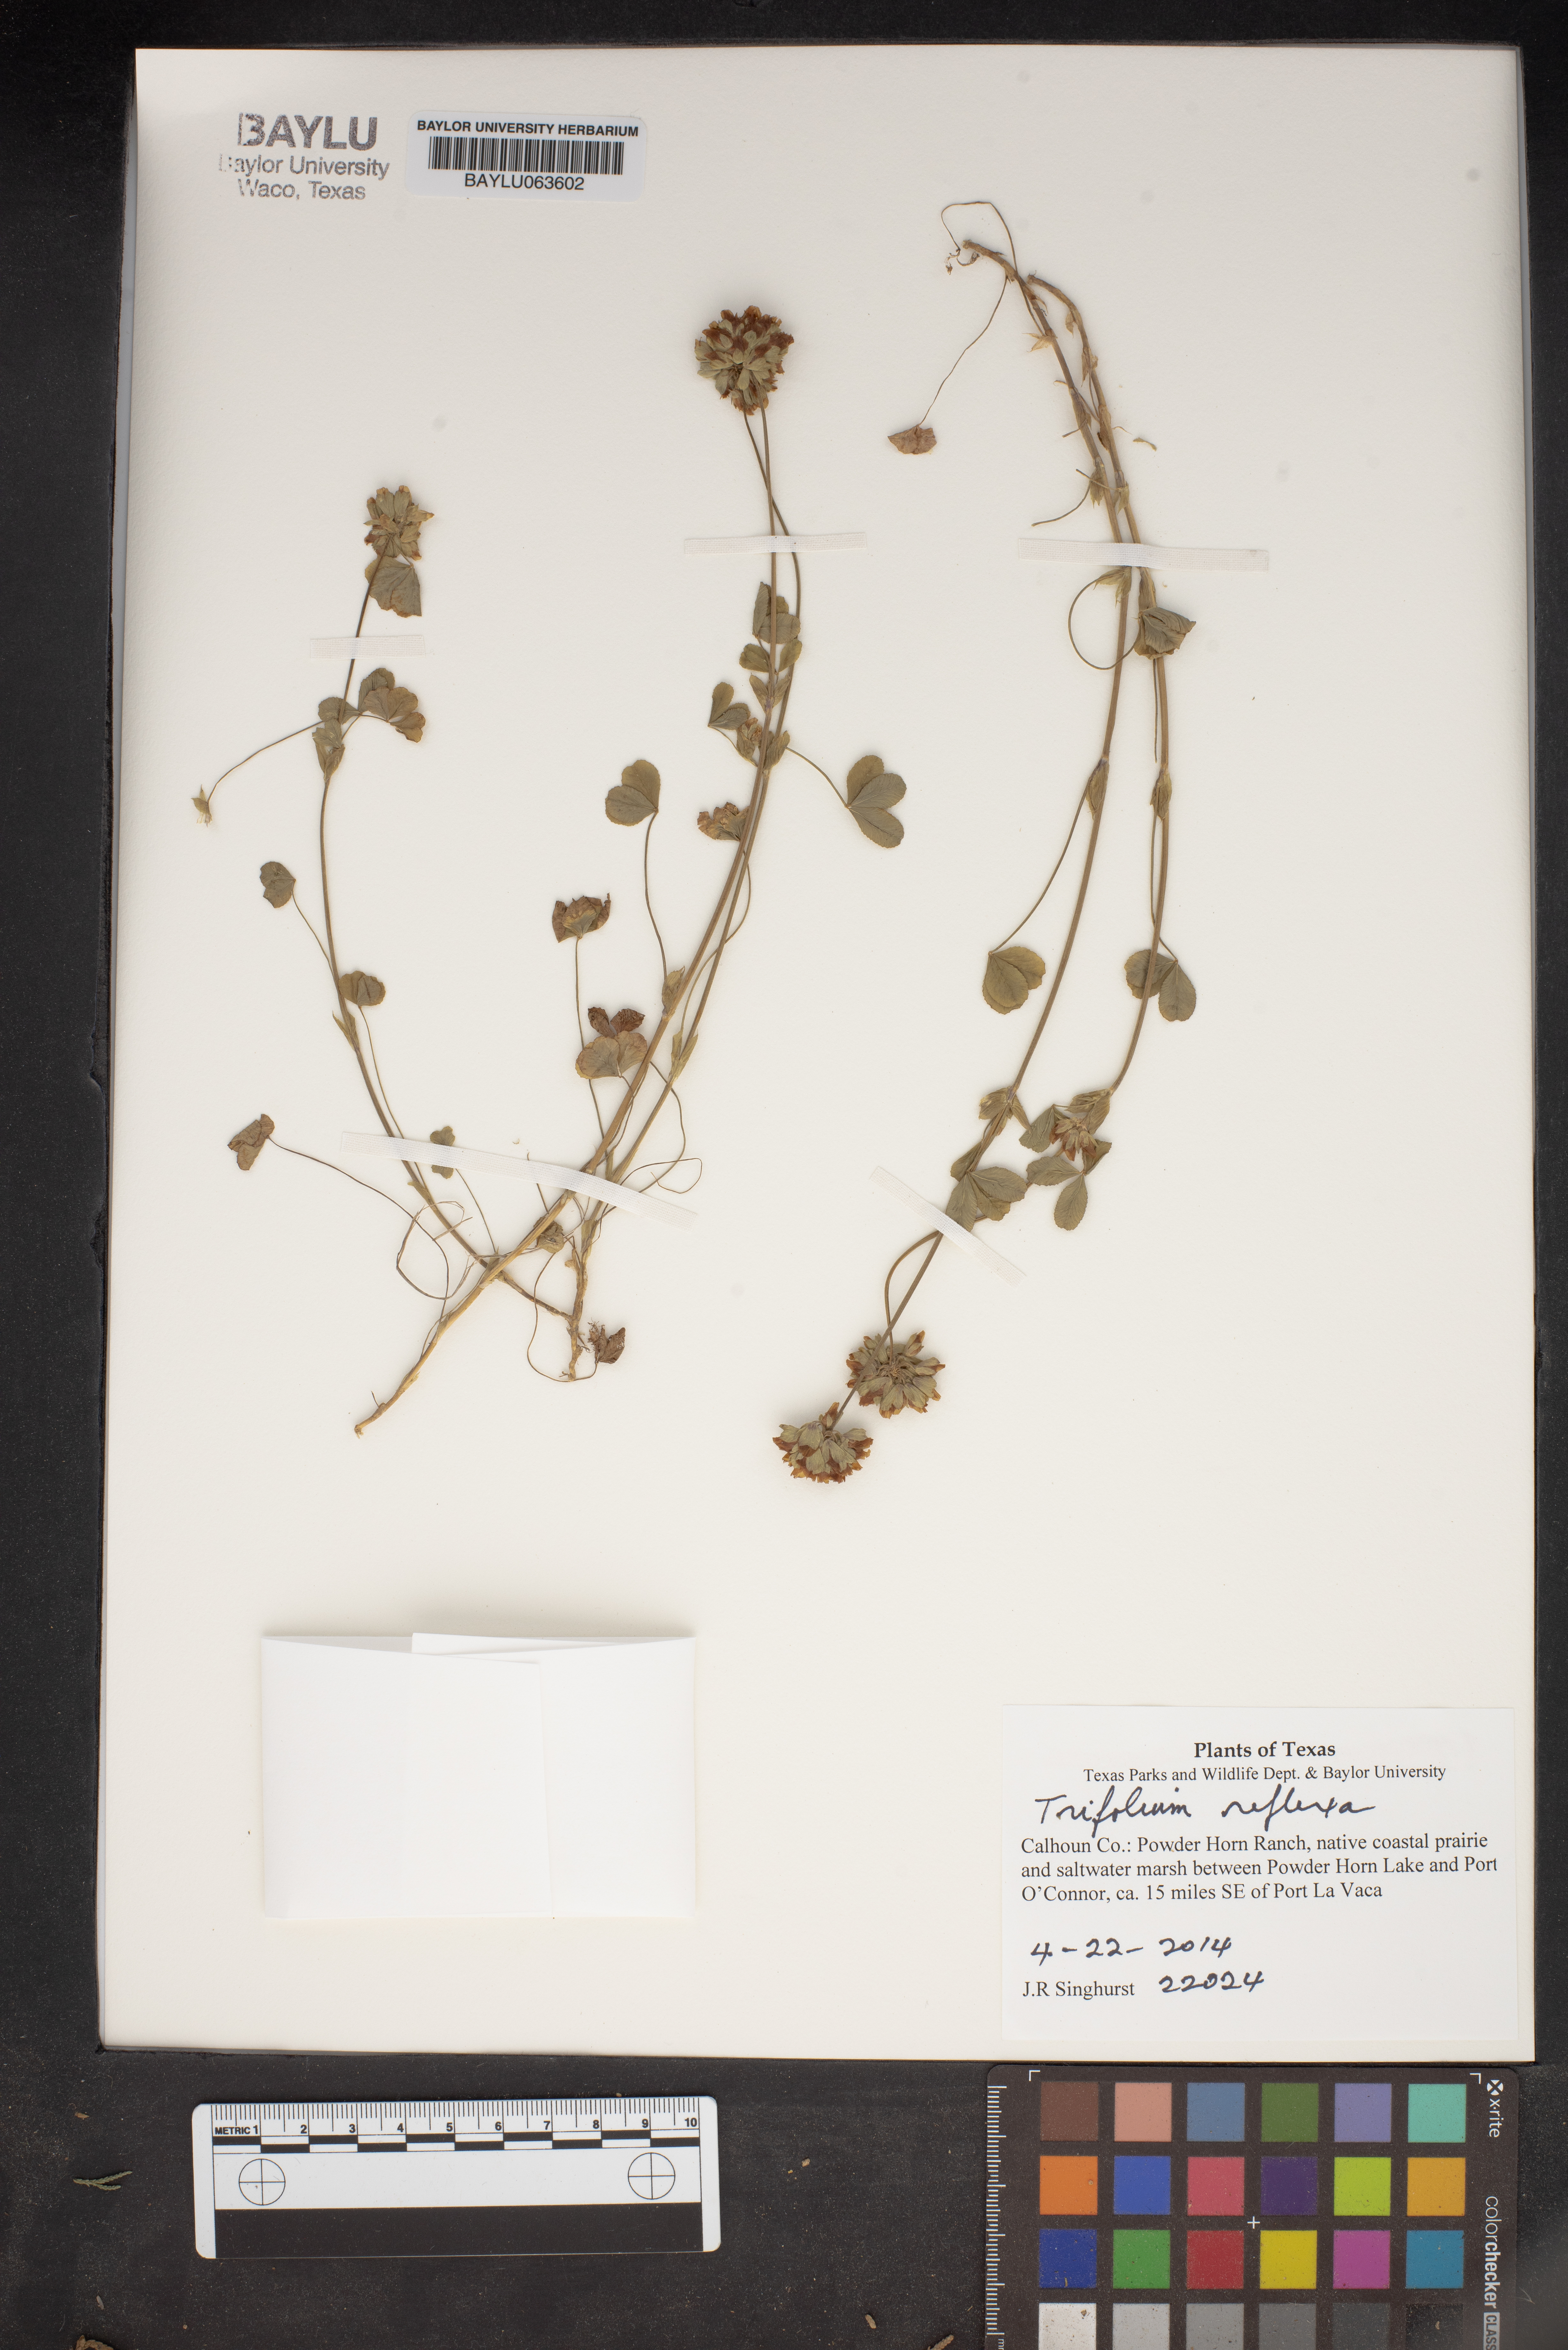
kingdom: Plantae
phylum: Tracheophyta
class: Magnoliopsida
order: Fabales
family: Fabaceae
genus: Trifolium
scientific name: Trifolium reflexum
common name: Buffalo clover
